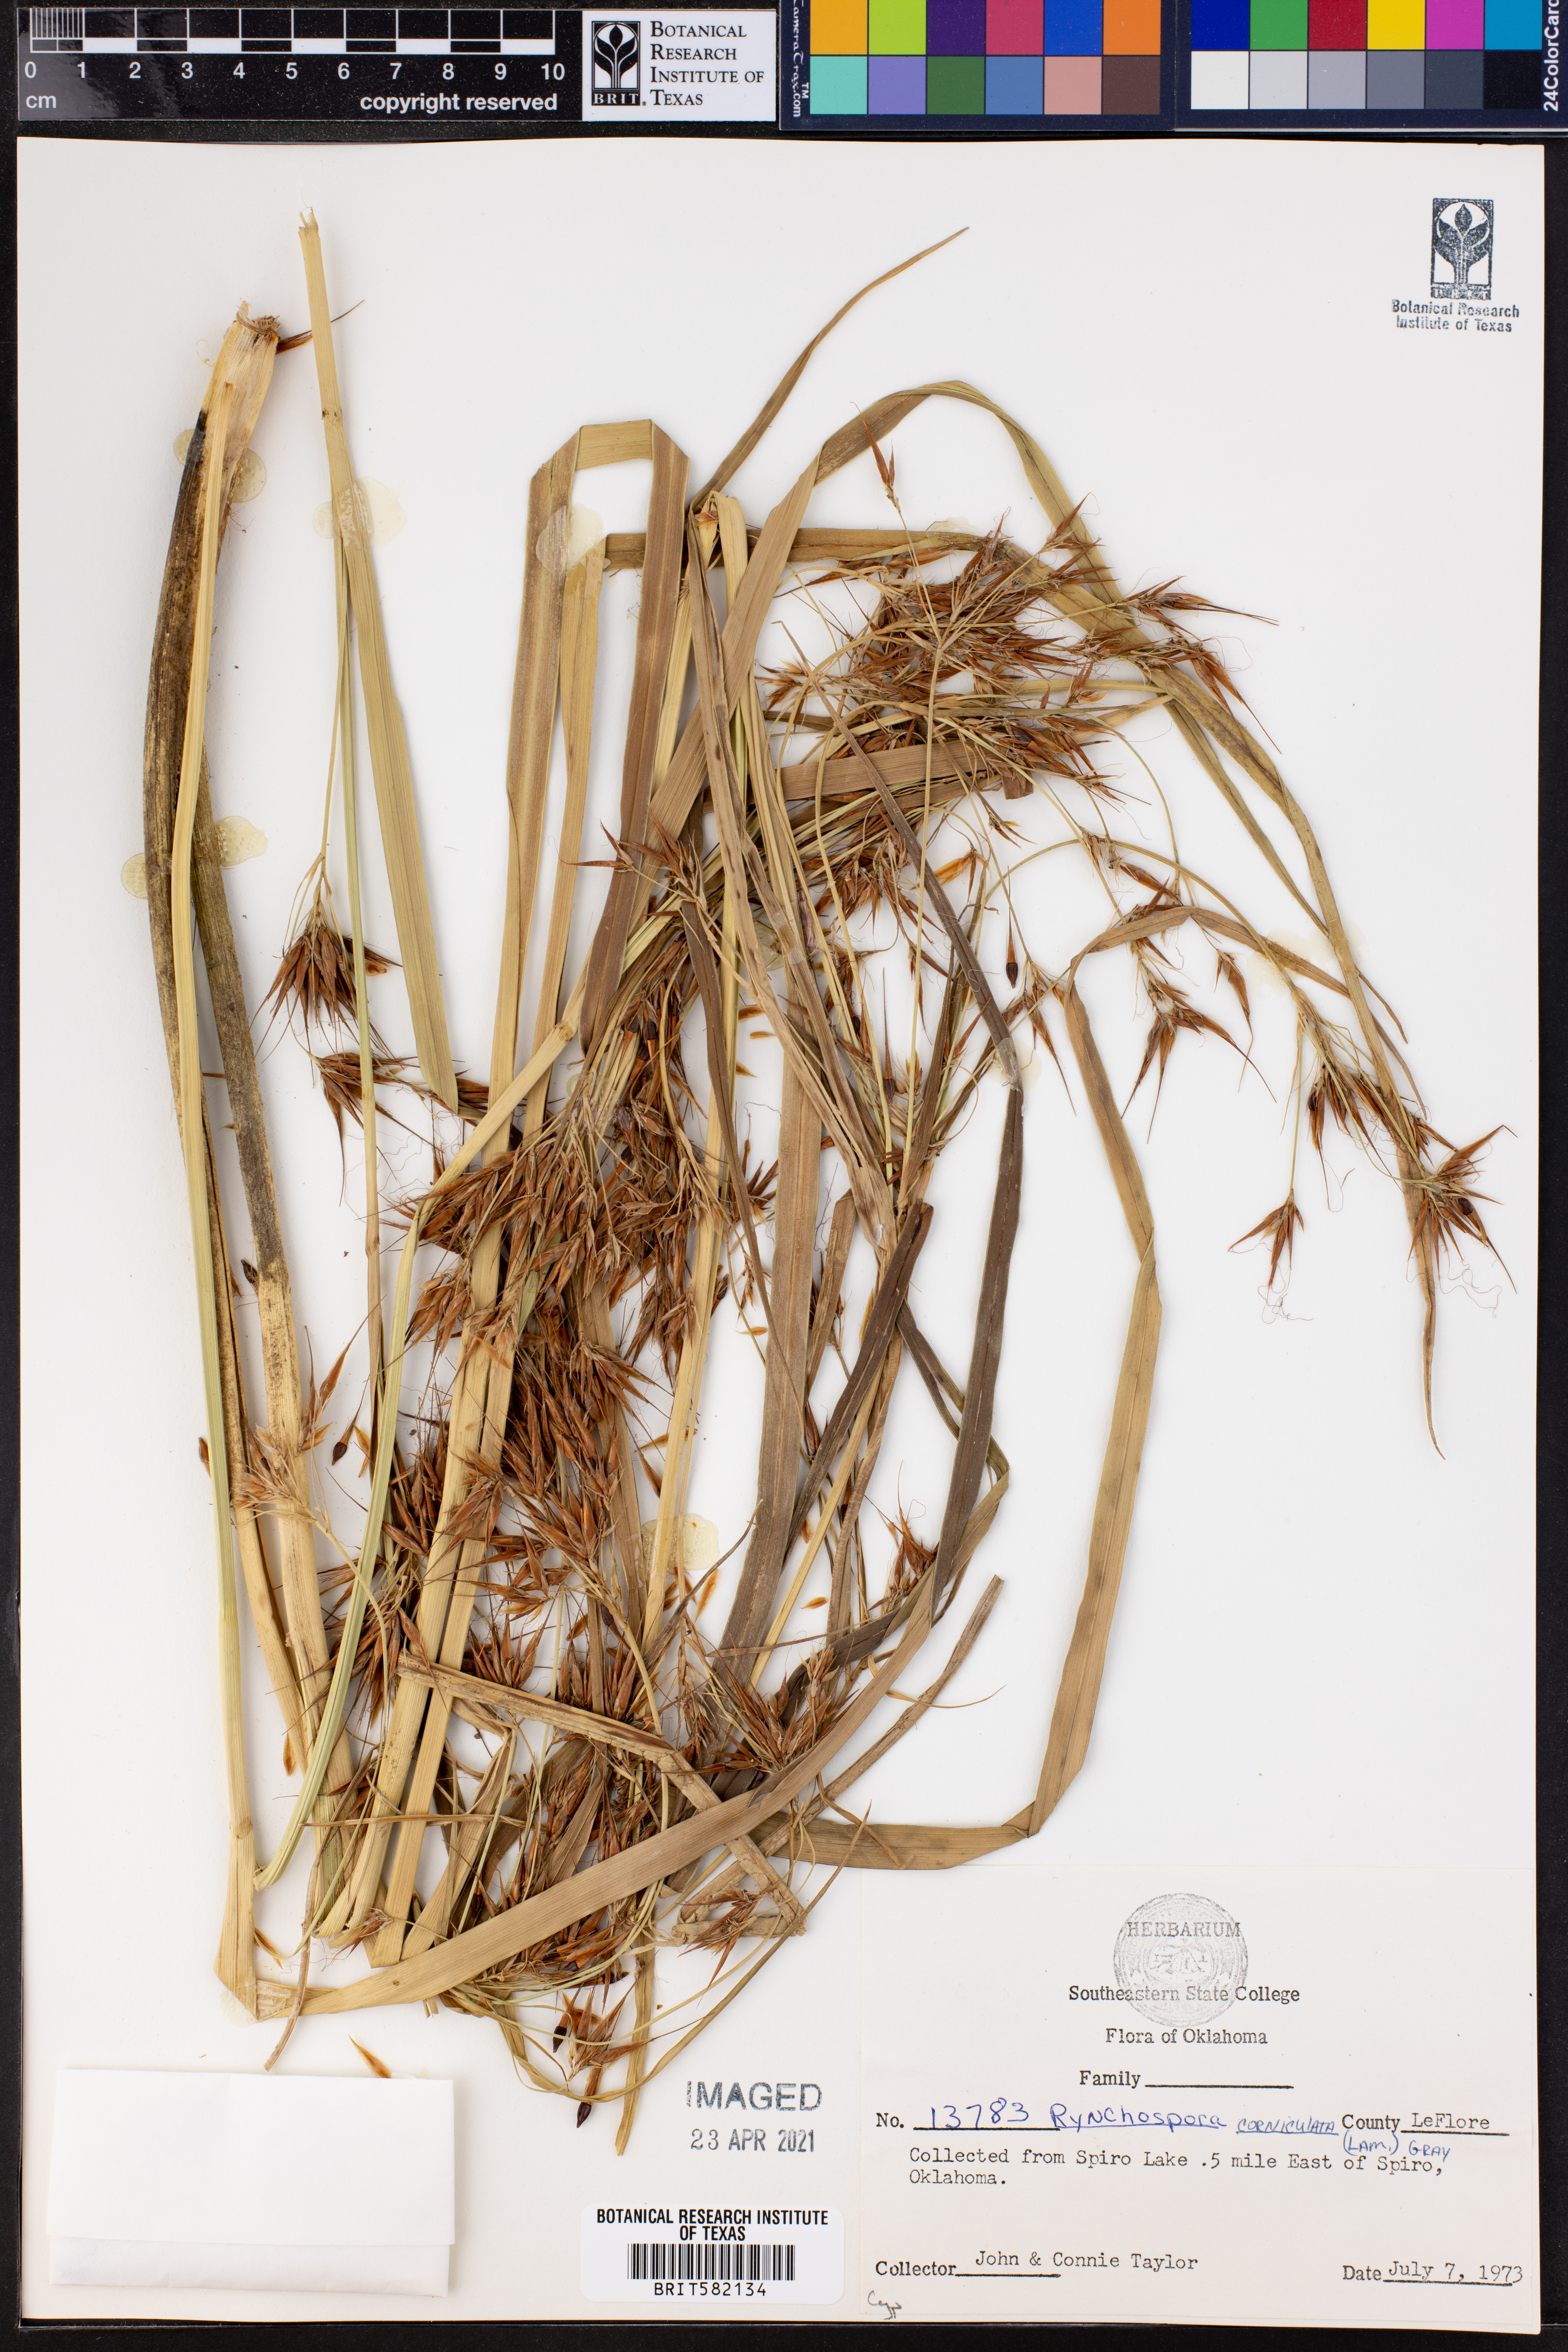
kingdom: Plantae
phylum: Tracheophyta
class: Liliopsida
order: Poales
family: Cyperaceae
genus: Rhynchospora
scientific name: Rhynchospora corniculata
